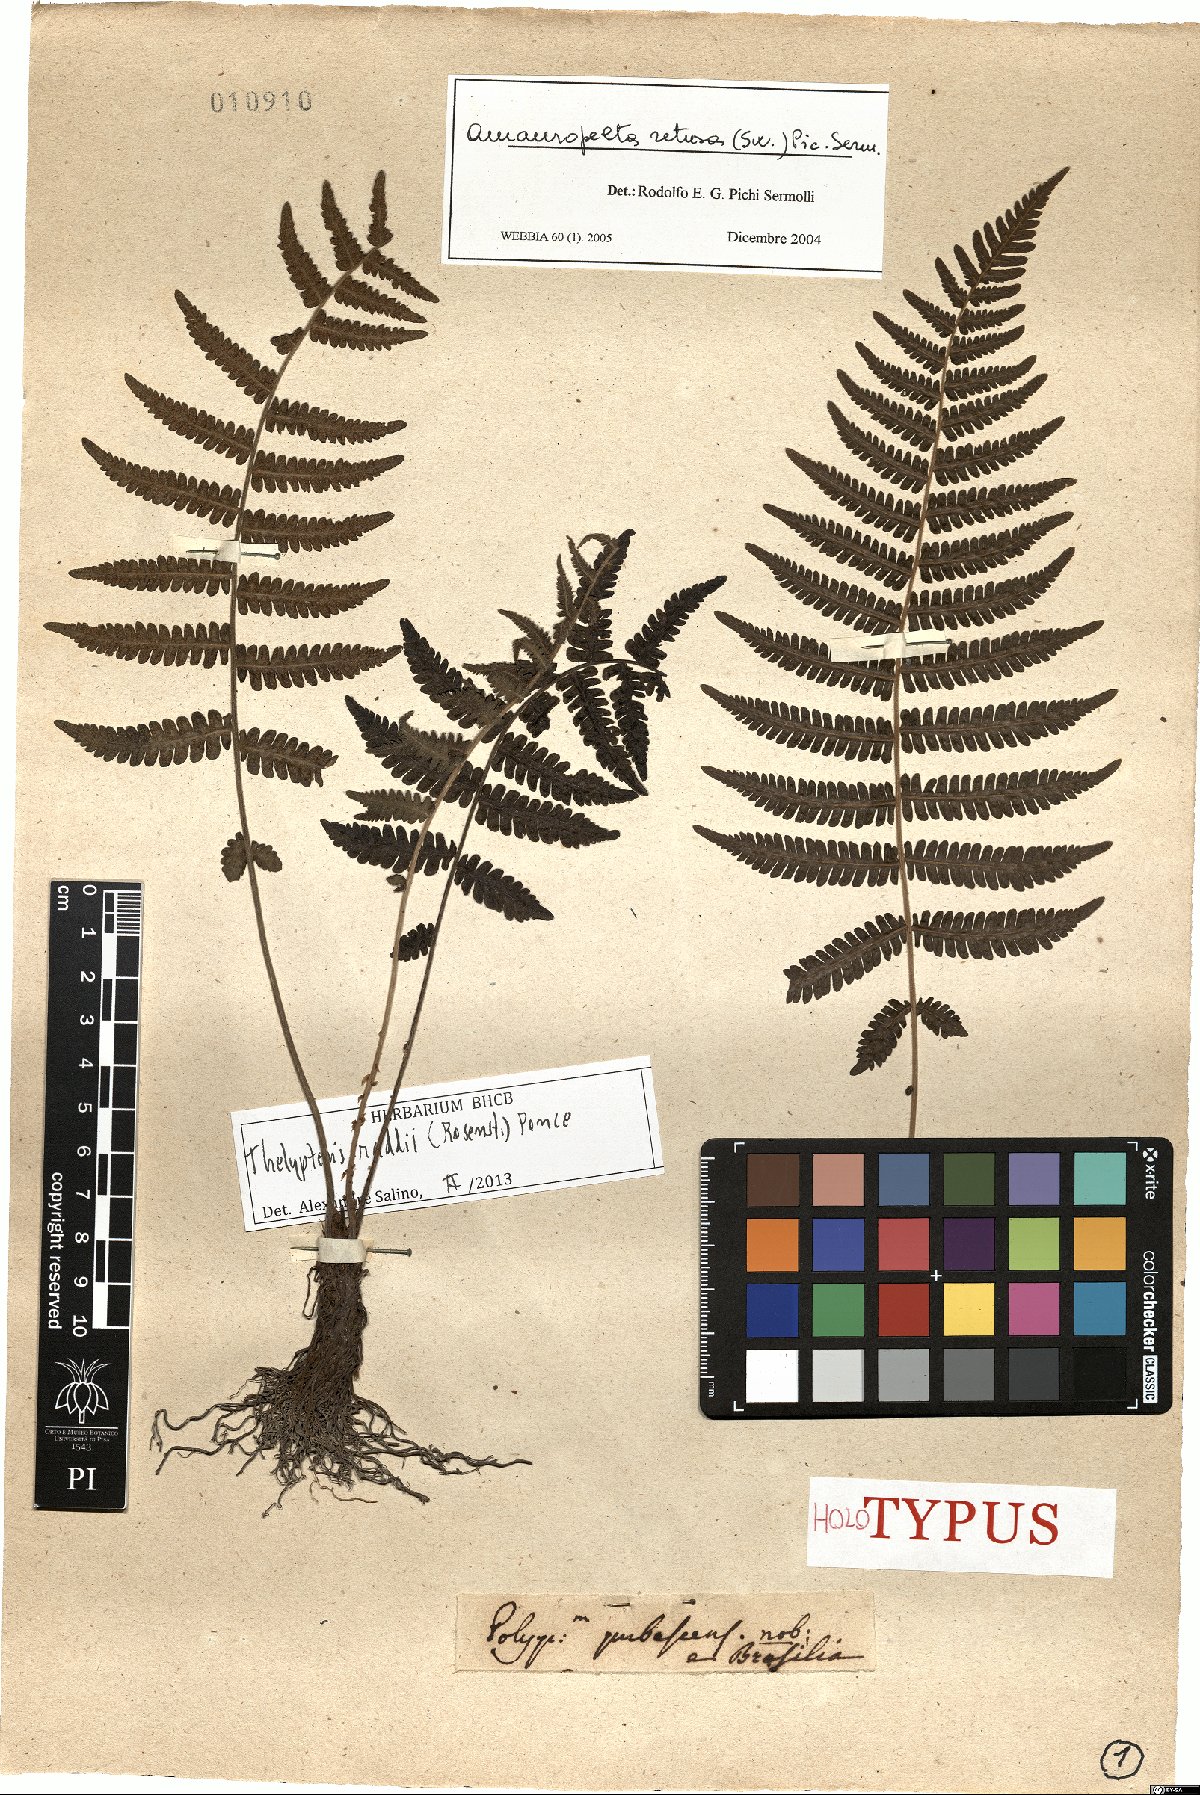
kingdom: Plantae
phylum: Tracheophyta
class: Polypodiopsida
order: Polypodiales
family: Thelypteridaceae
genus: Amauropelta
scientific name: Amauropelta raddii
